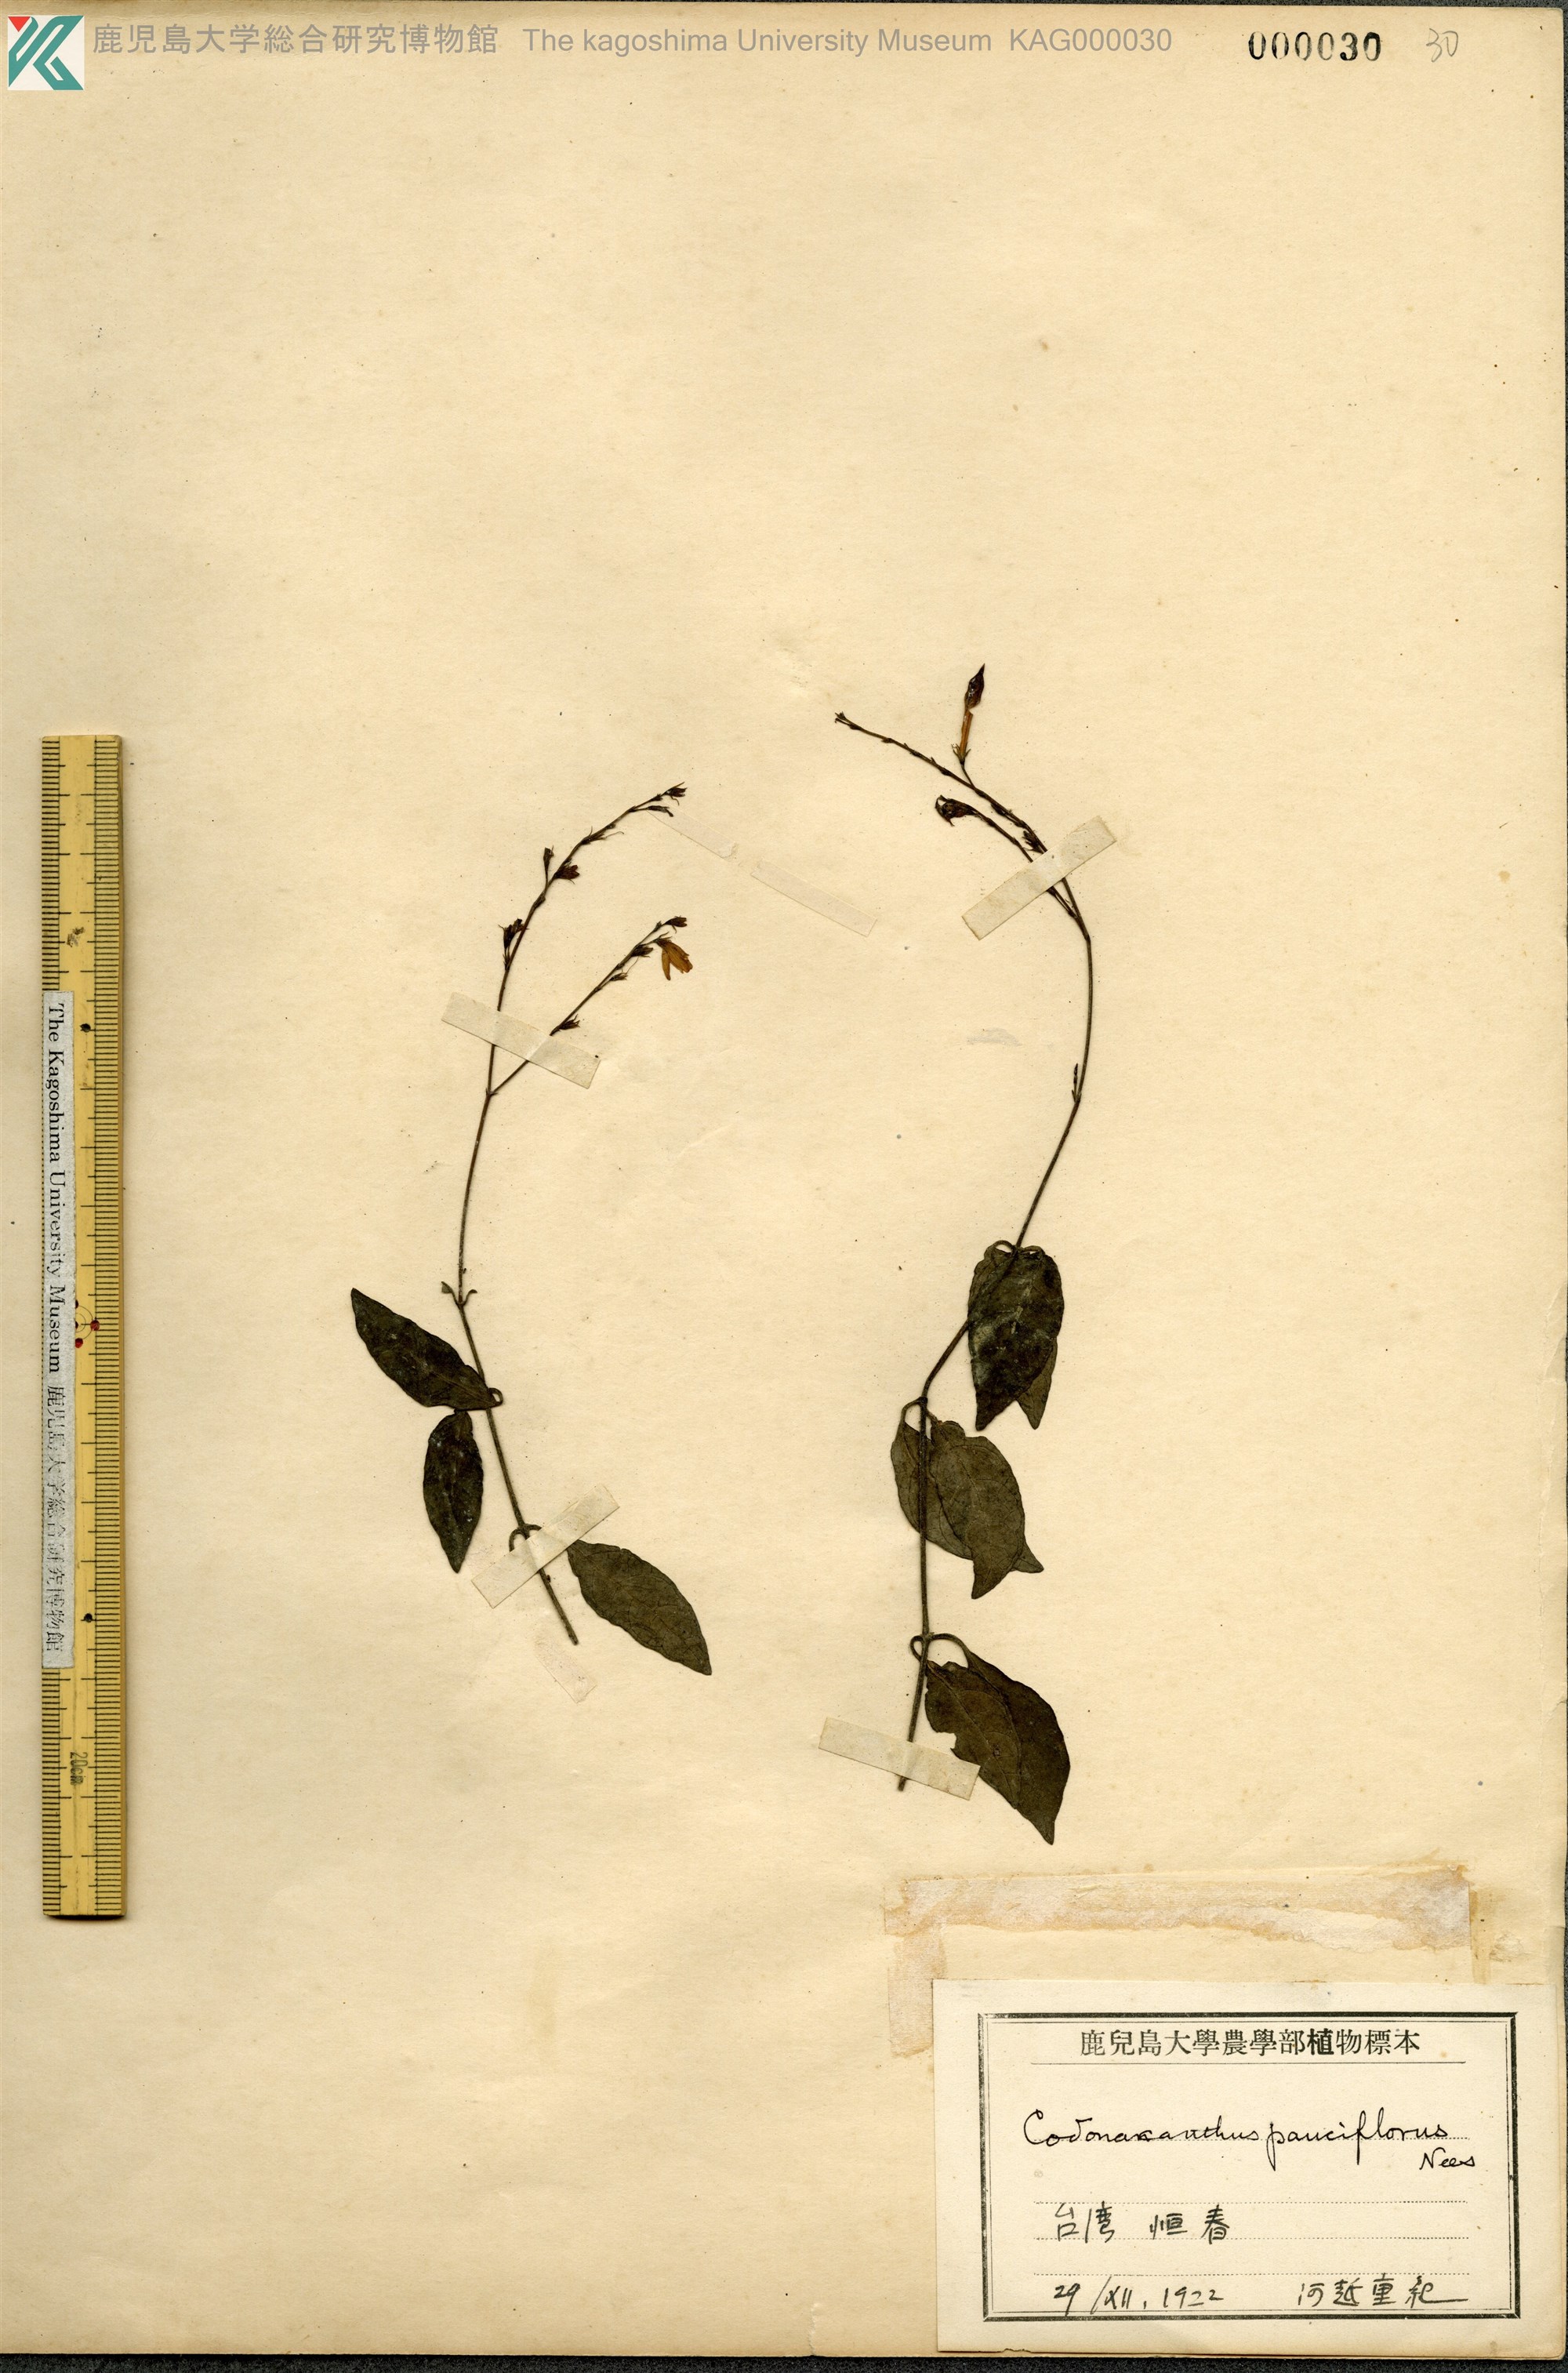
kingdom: Plantae
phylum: Tracheophyta
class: Magnoliopsida
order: Lamiales
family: Acanthaceae
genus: Codonacanthus
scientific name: Codonacanthus pauciflorus
